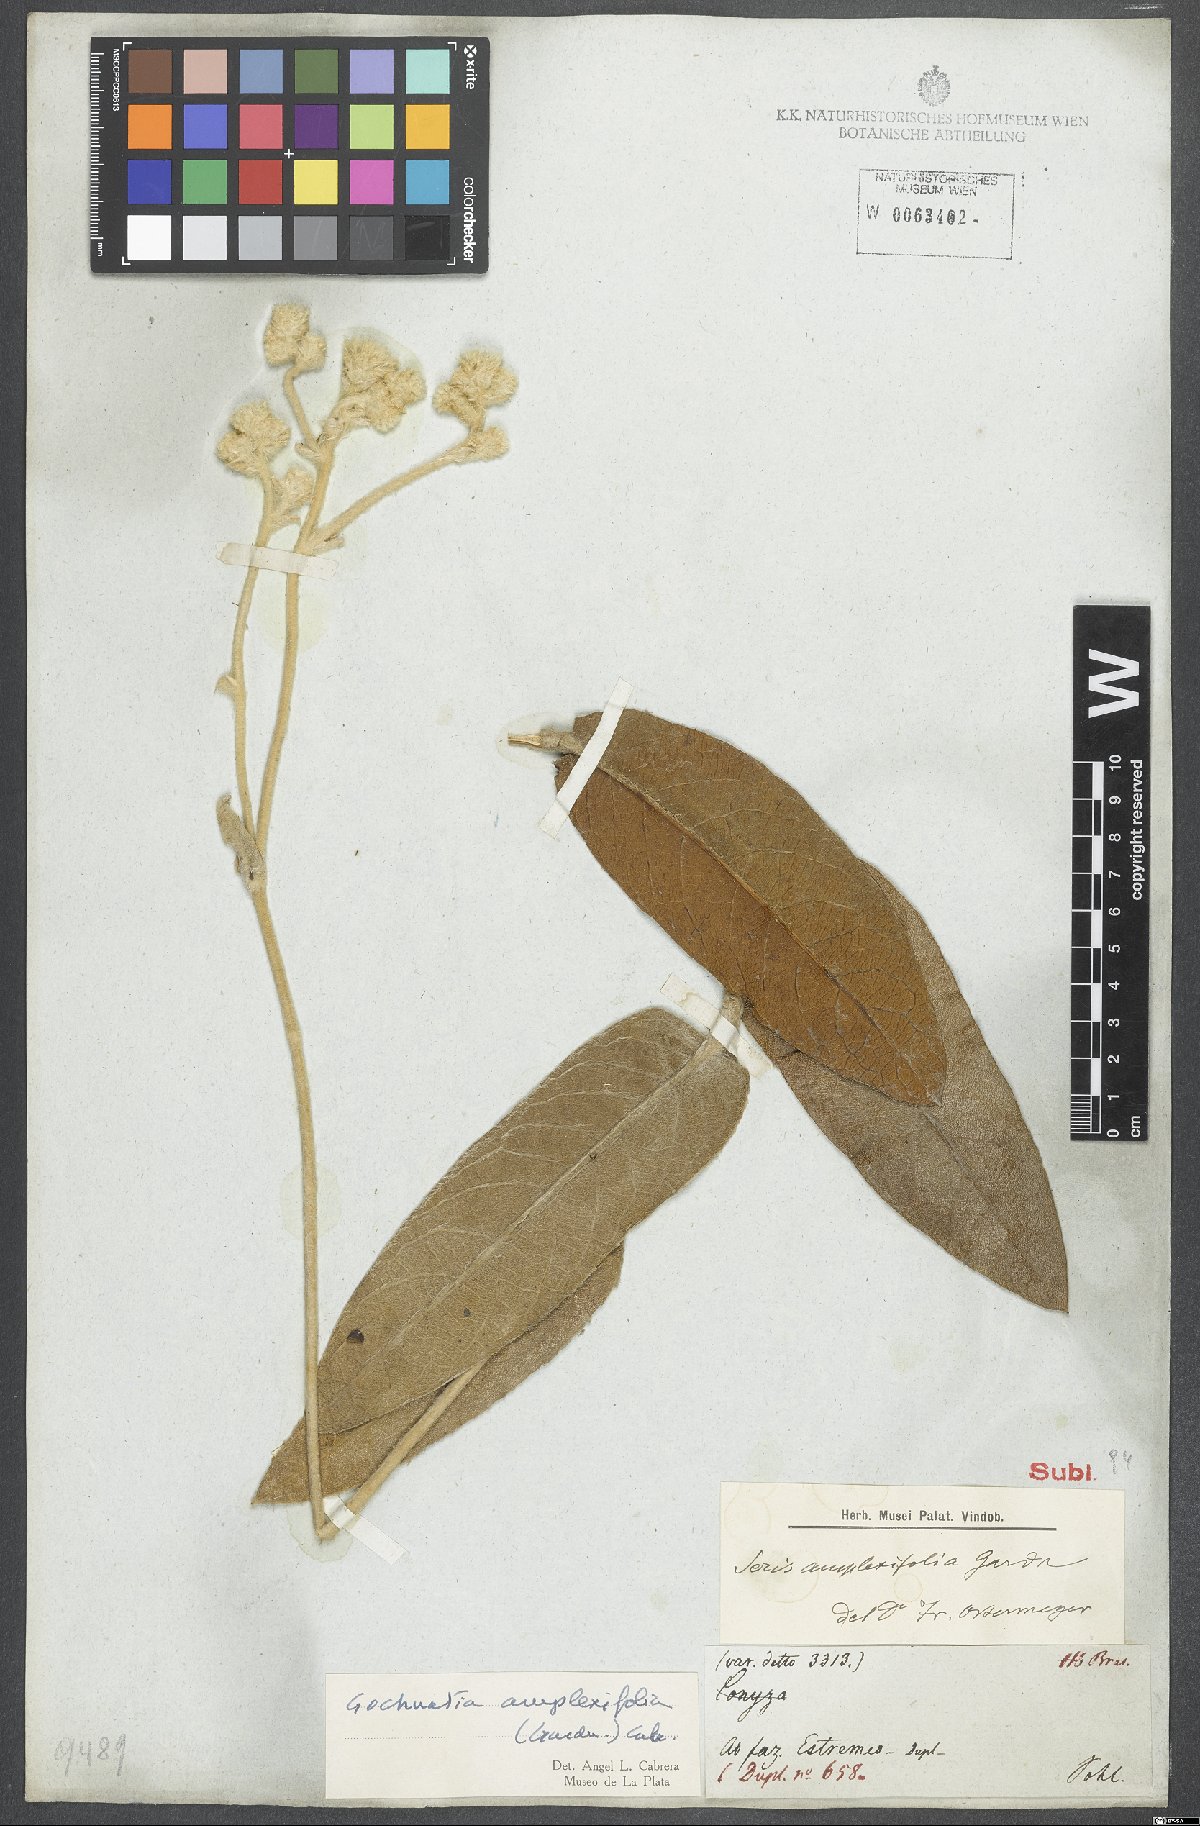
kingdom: Plantae
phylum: Tracheophyta
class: Magnoliopsida
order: Asterales
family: Asteraceae
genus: Richterago
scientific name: Richterago amplexifolia
